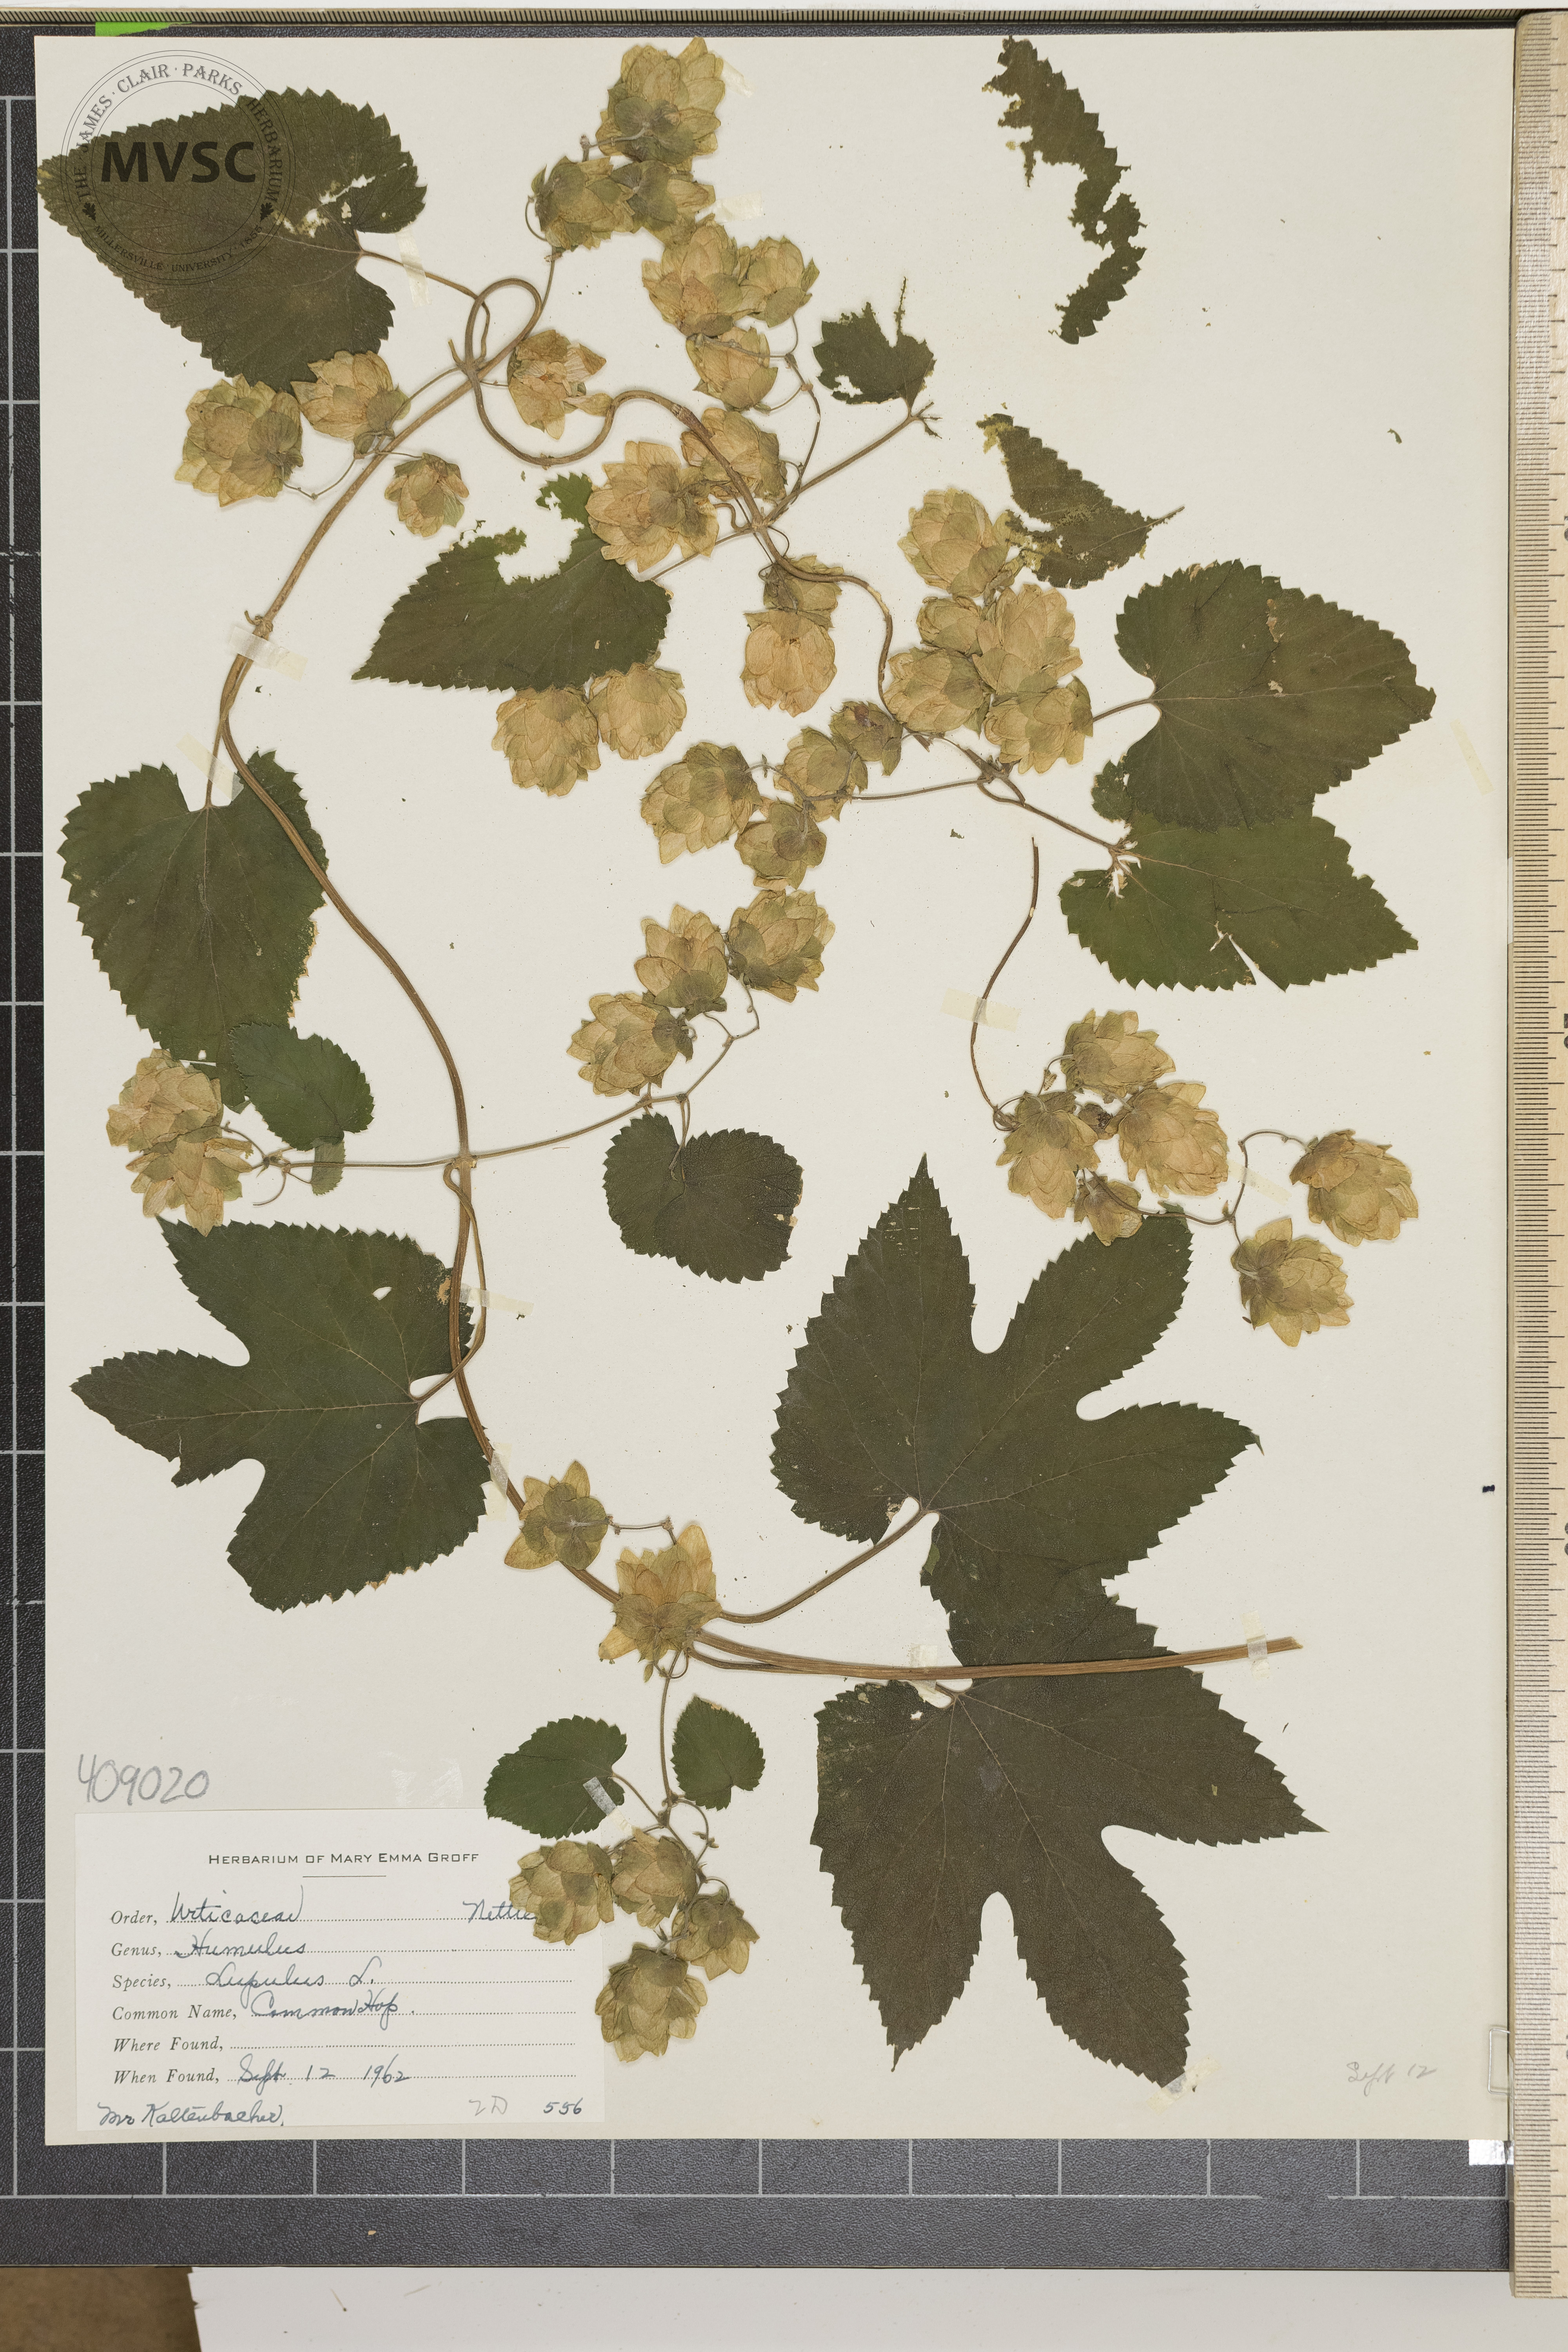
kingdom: Plantae
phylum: Tracheophyta
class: Magnoliopsida
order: Rosales
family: Cannabaceae
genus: Humulus
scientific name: Humulus lupulus
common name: hops
